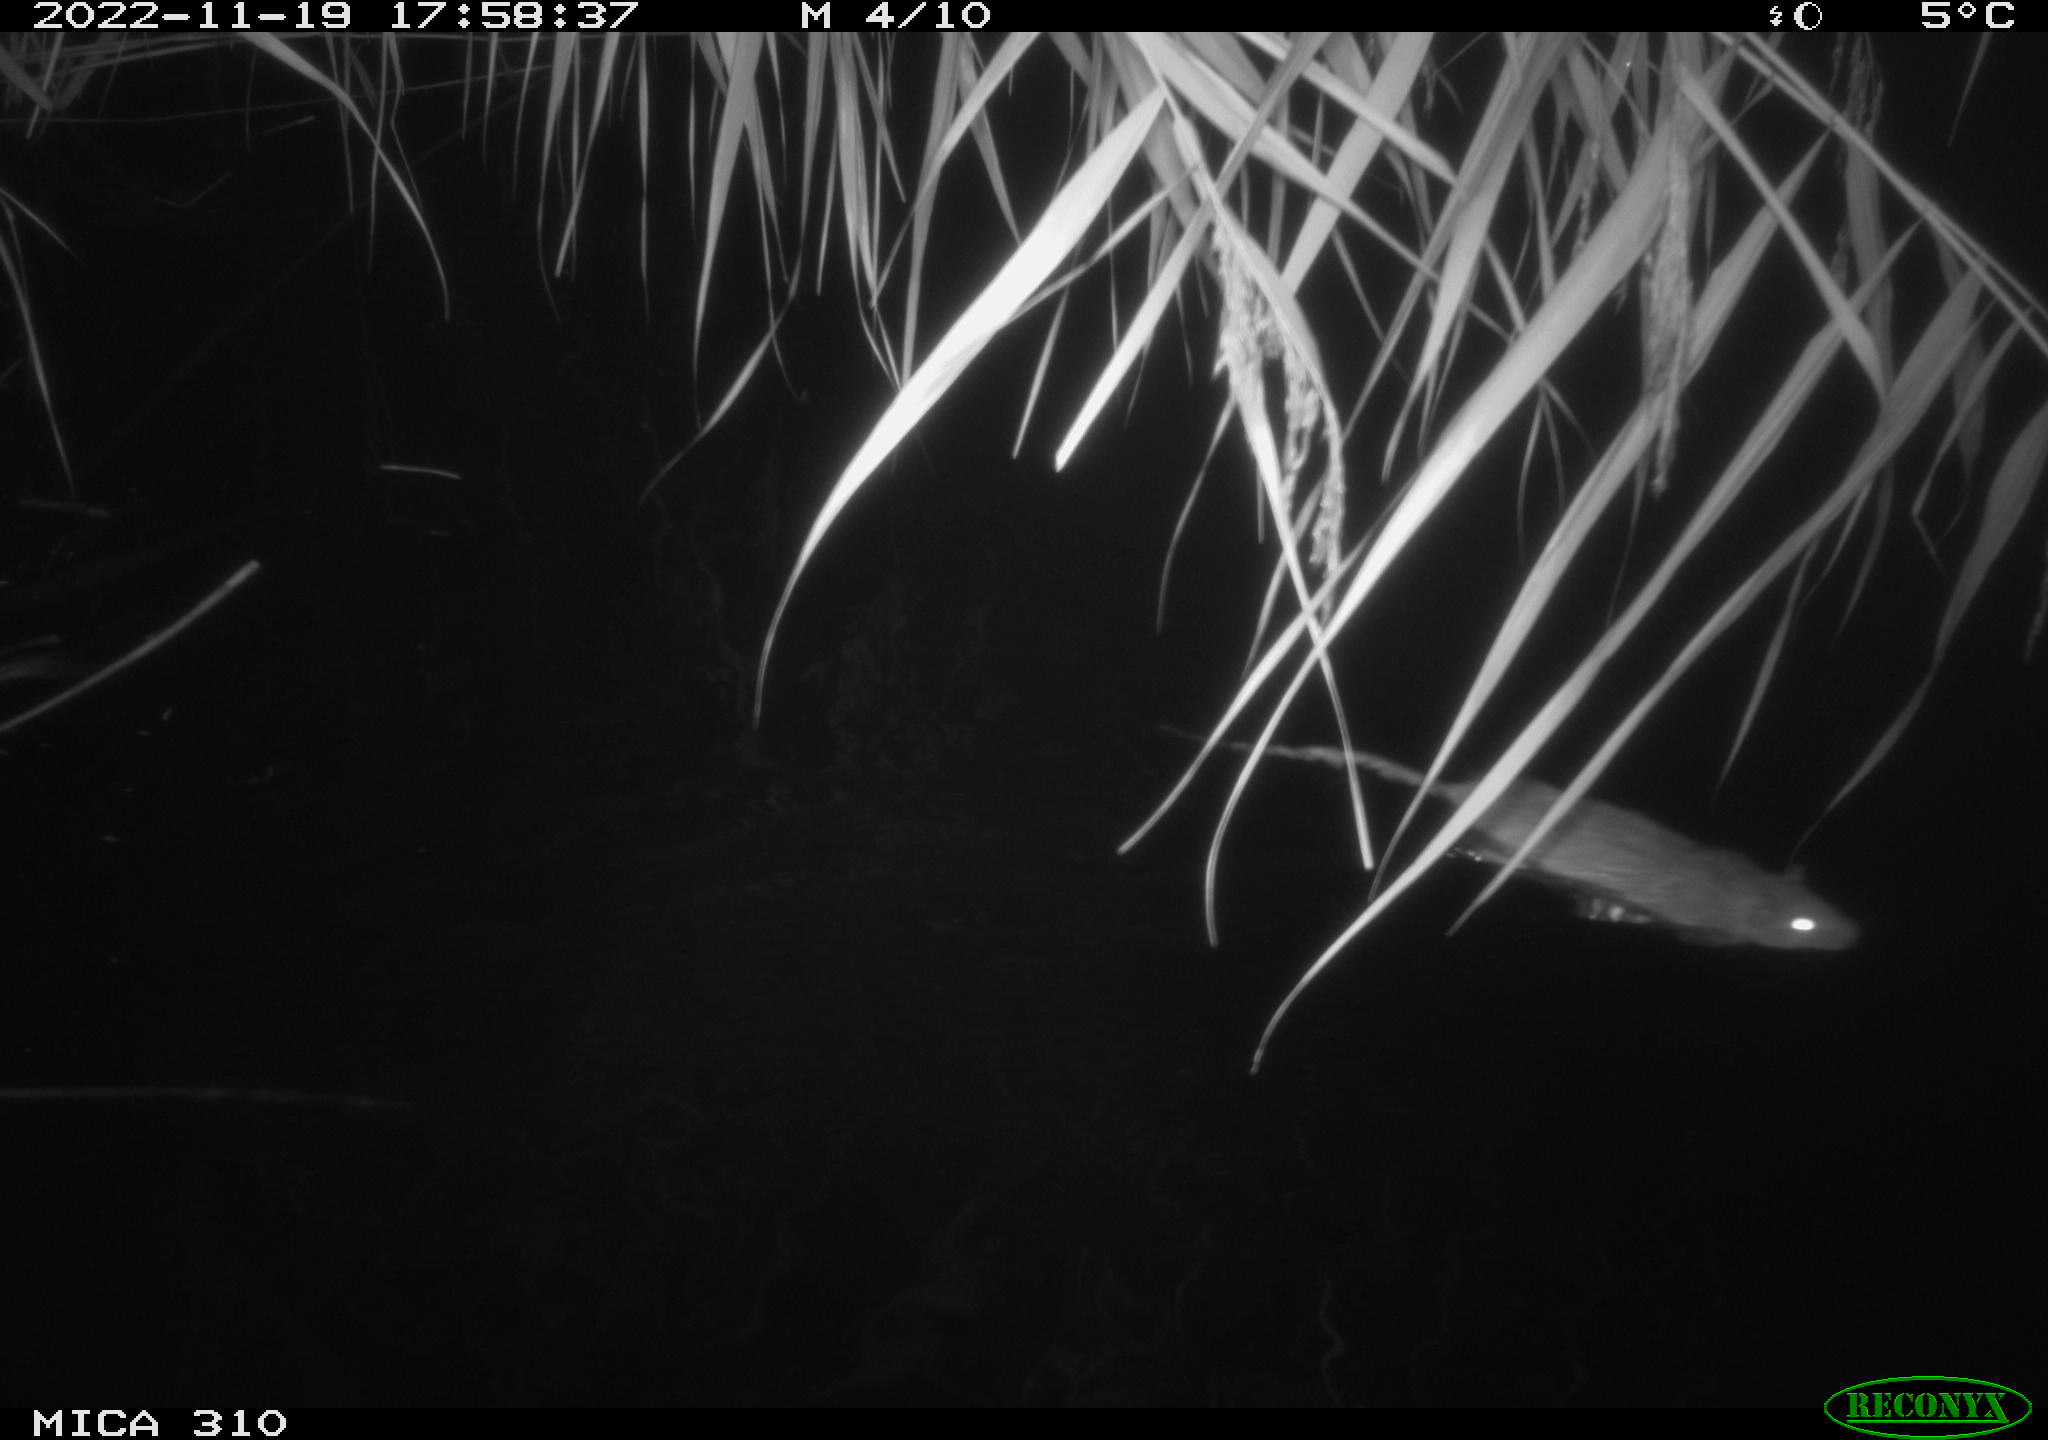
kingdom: Animalia
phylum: Chordata
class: Mammalia
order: Rodentia
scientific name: Rodentia
